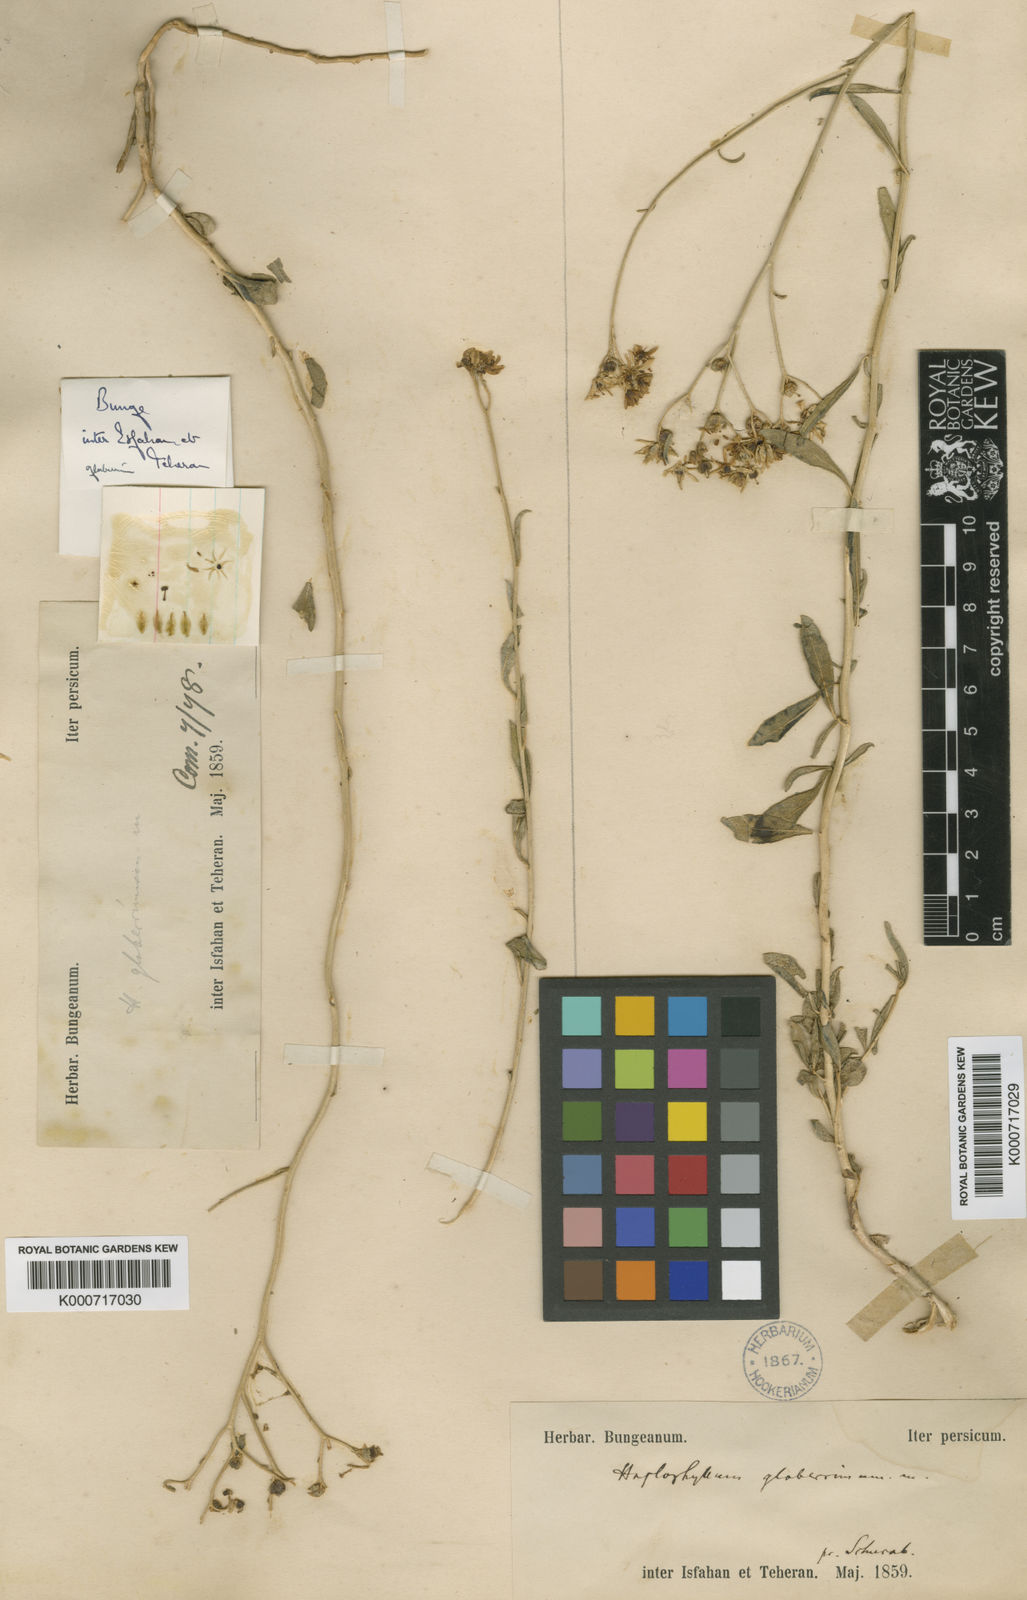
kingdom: Plantae
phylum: Tracheophyta
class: Magnoliopsida
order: Sapindales
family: Rutaceae
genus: Haplophyllum
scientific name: Haplophyllum glaberrimum
